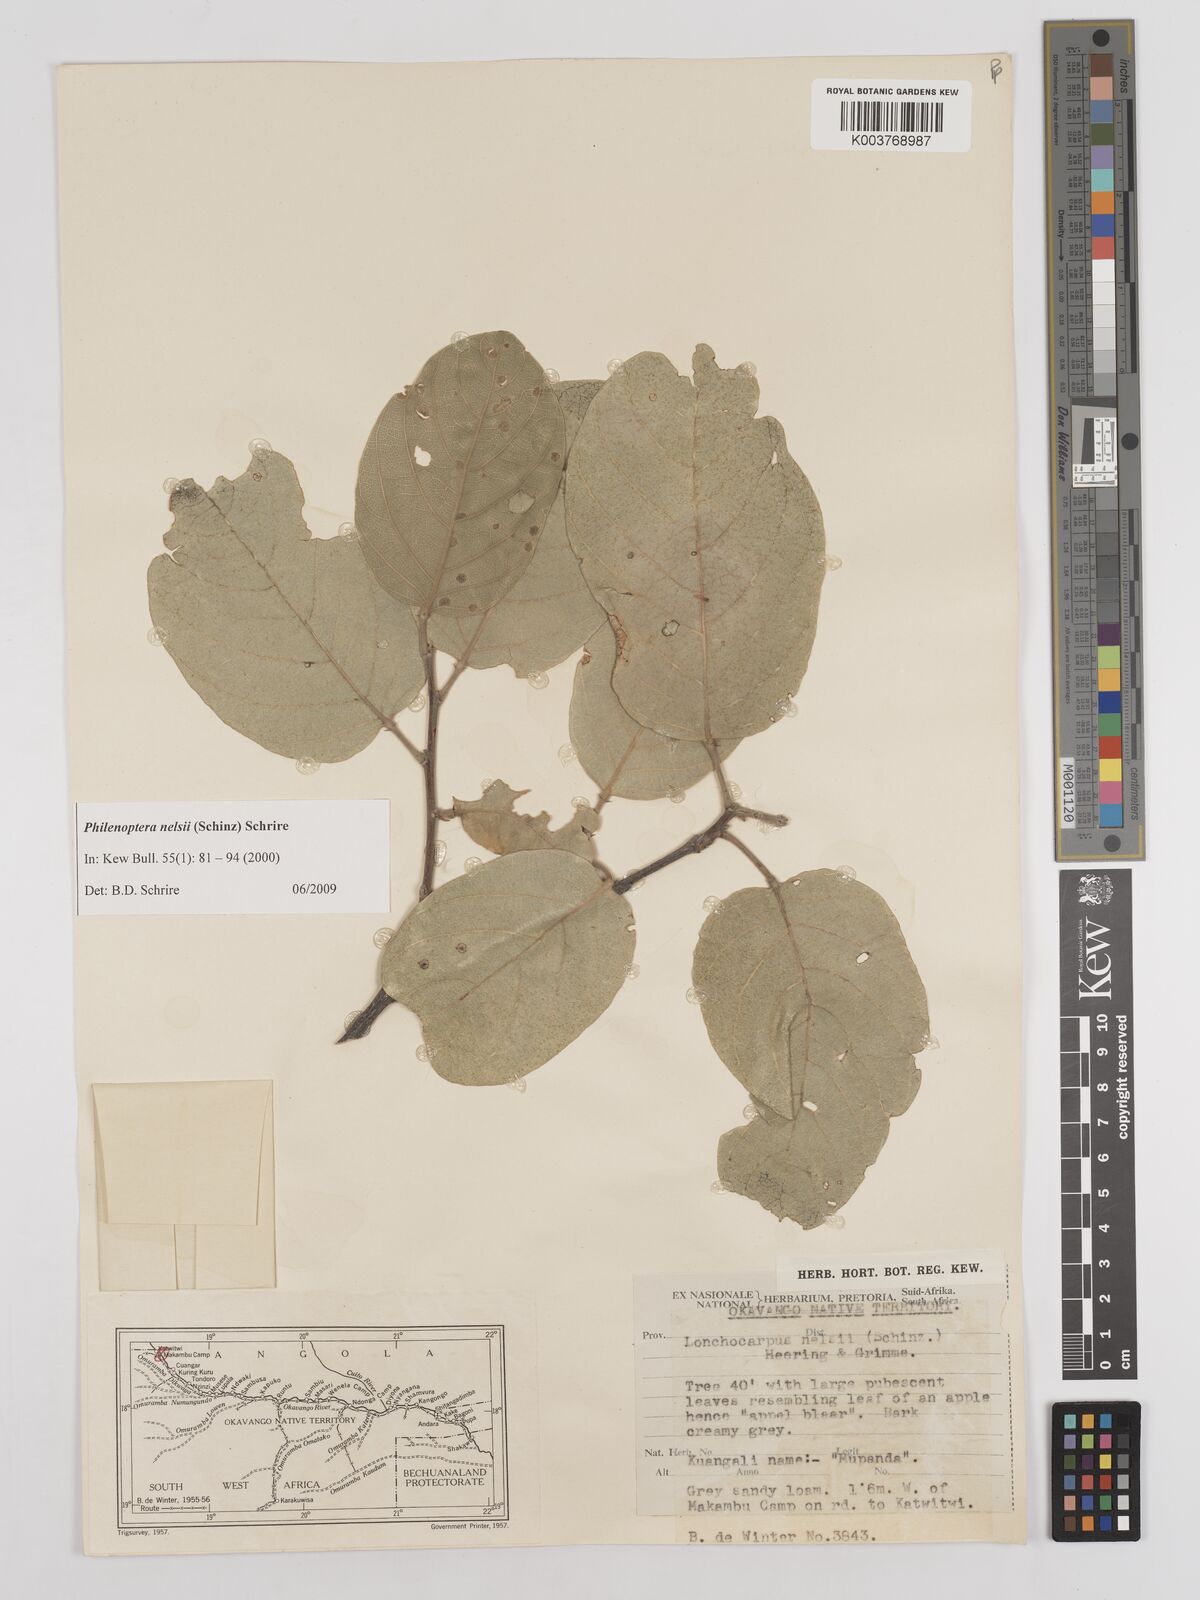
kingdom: Plantae
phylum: Tracheophyta
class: Magnoliopsida
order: Fabales
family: Fabaceae
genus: Philenoptera
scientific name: Philenoptera nelsii
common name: Kalahari apple-leaf
